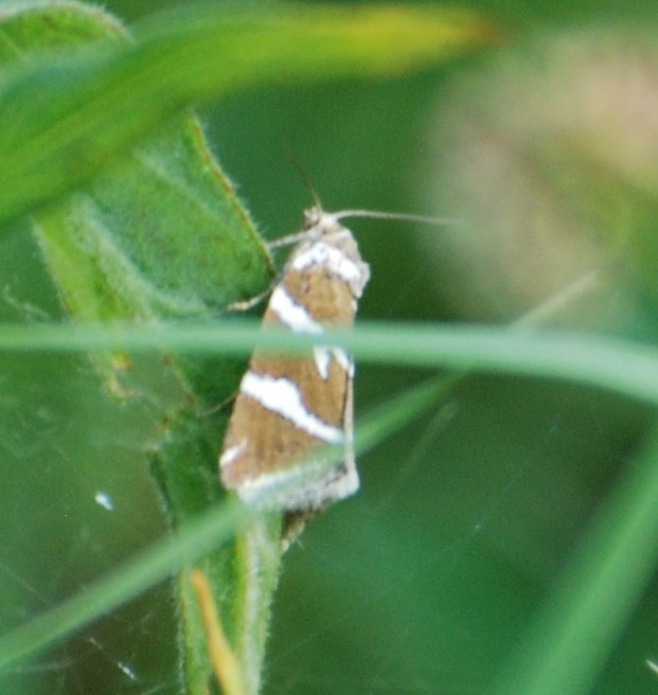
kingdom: Animalia
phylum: Arthropoda
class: Insecta
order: Lepidoptera
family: Noctuidae
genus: Deltote
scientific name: Deltote bankiana
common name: Tvebånd-dagugle
